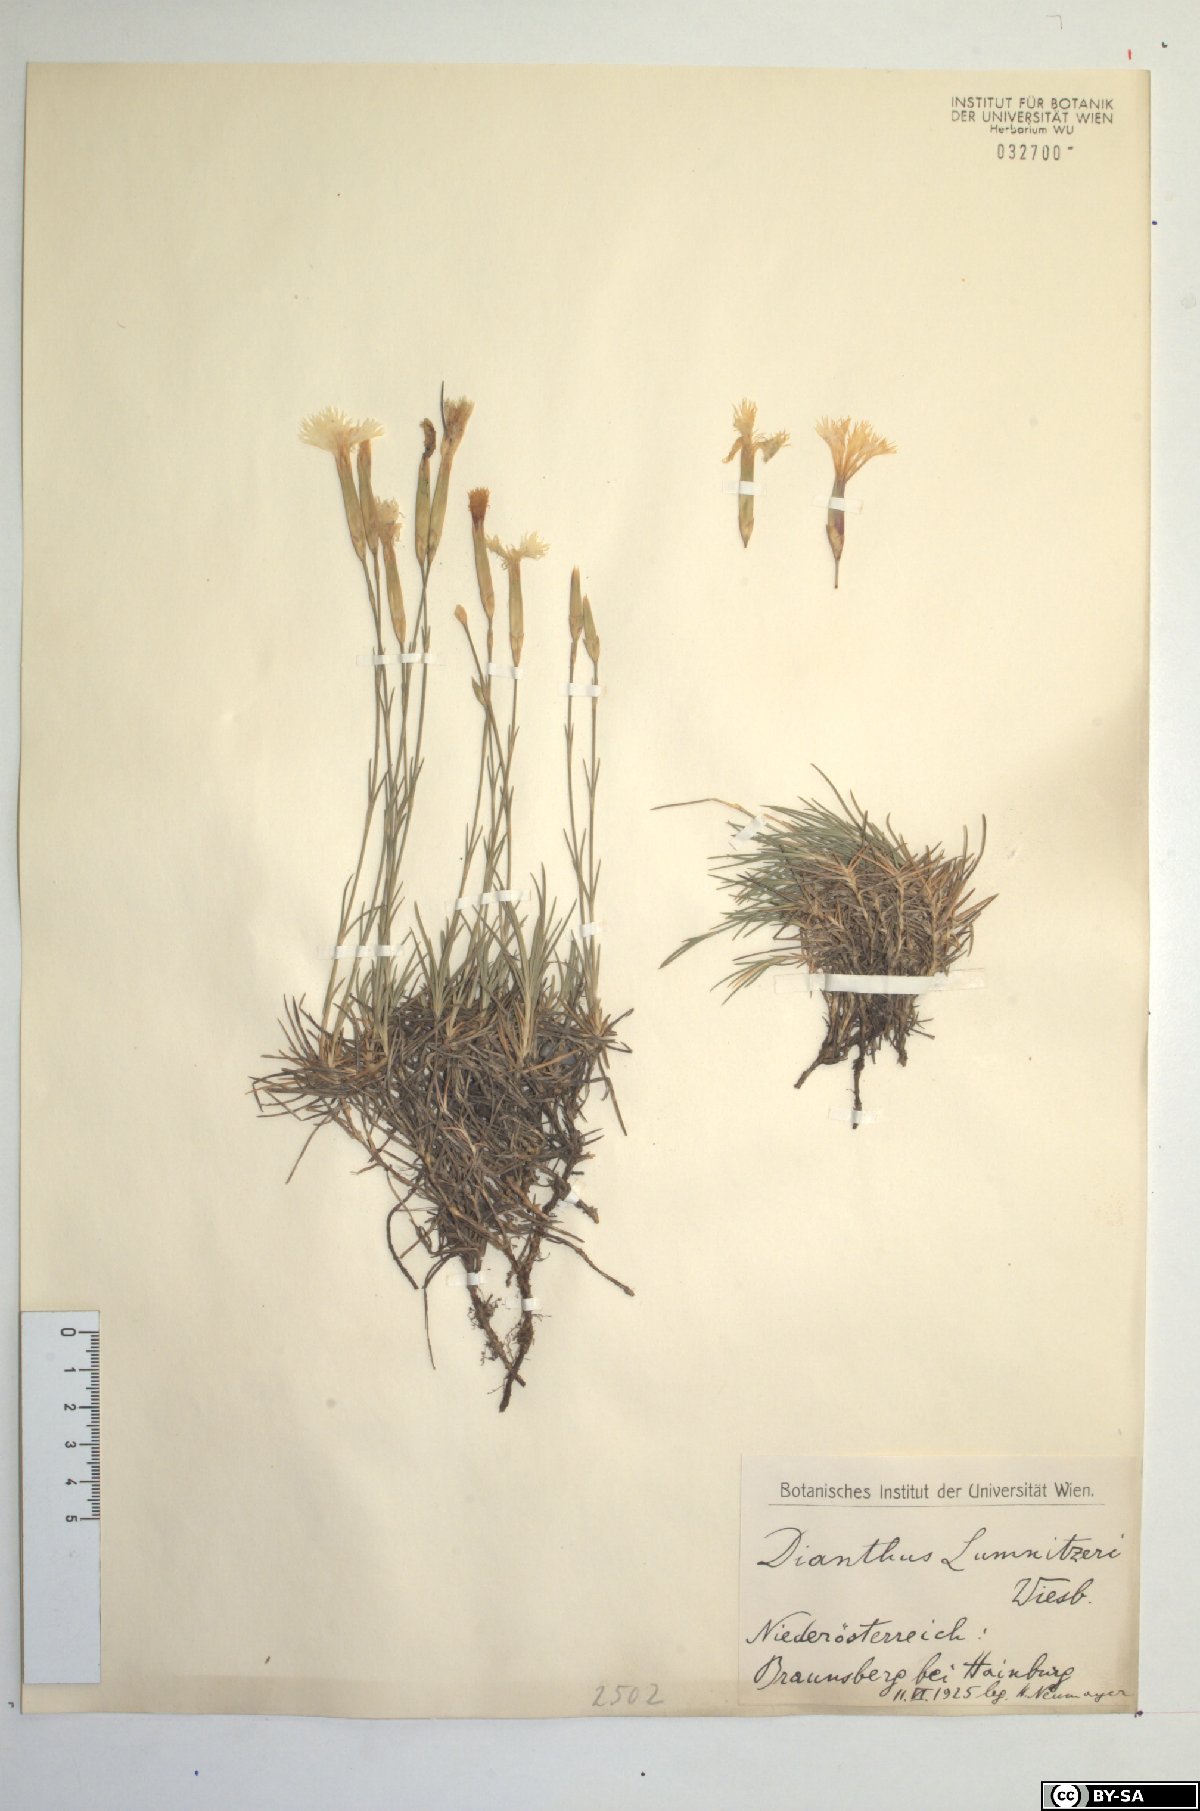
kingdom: Plantae
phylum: Tracheophyta
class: Magnoliopsida
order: Caryophyllales
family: Caryophyllaceae
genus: Dianthus
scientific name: Dianthus praecox
